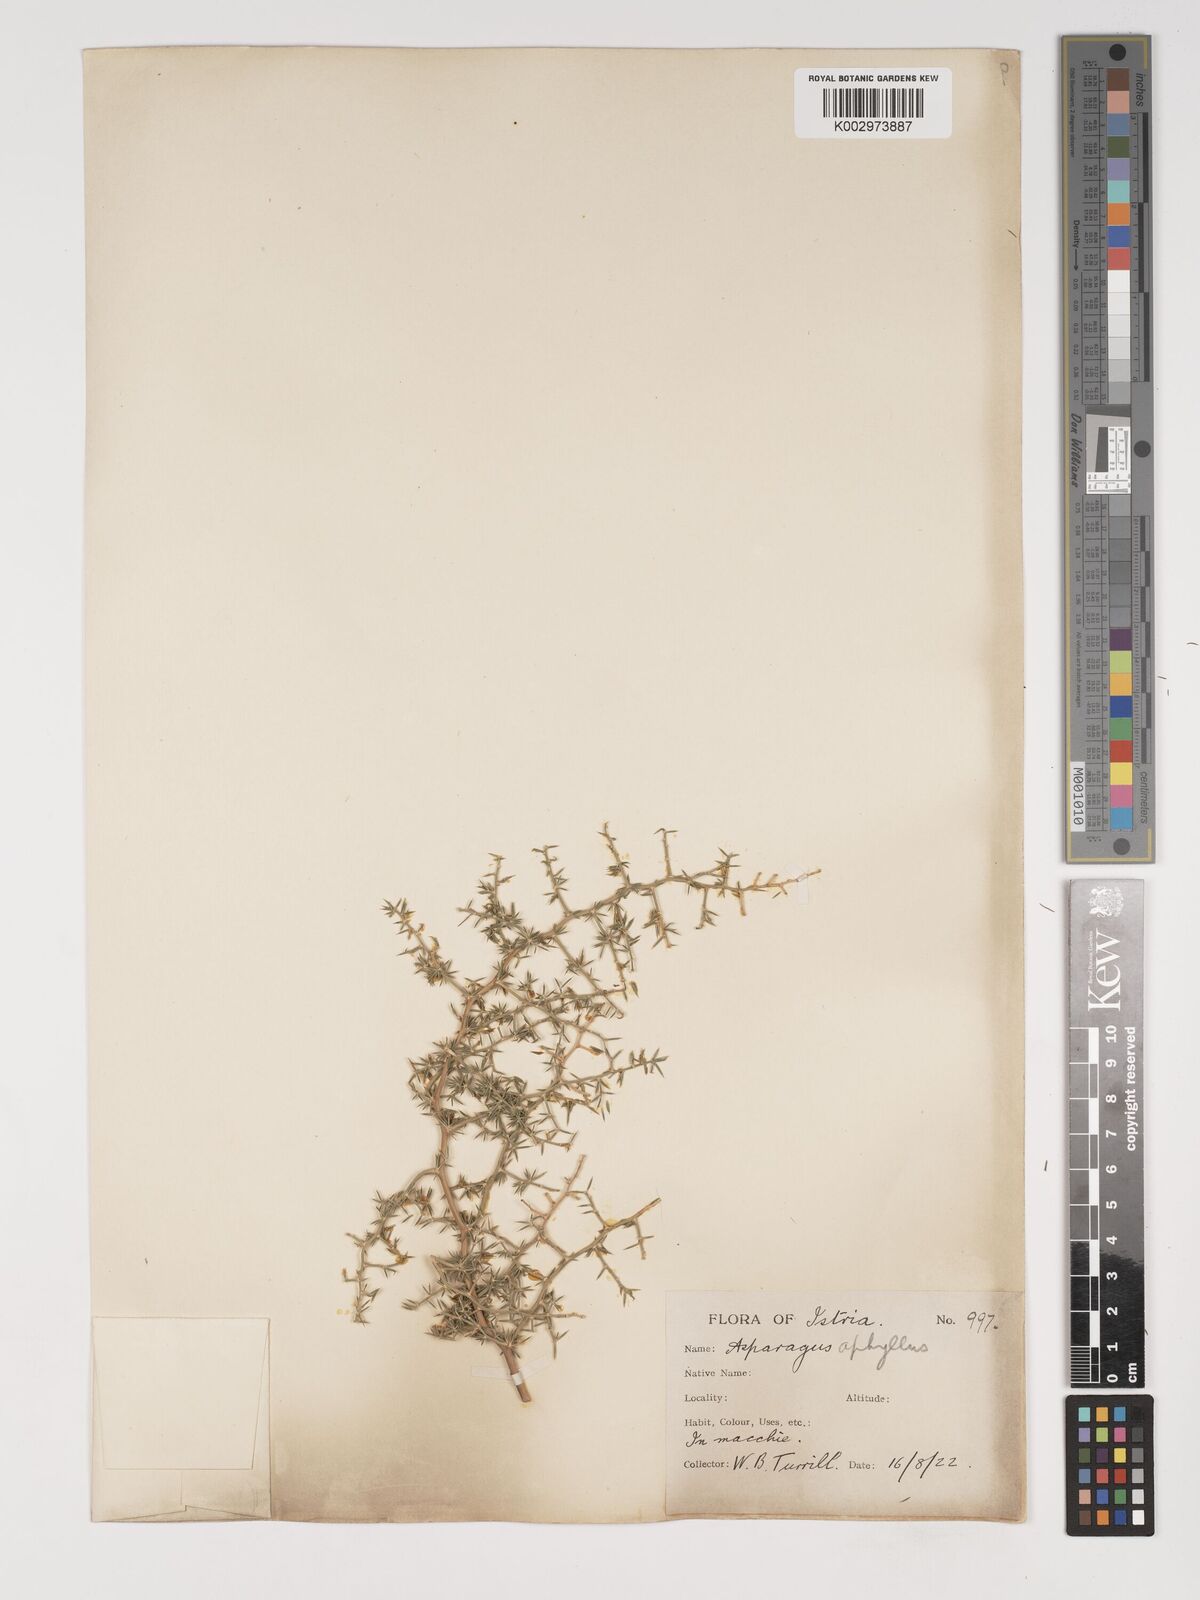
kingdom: Plantae
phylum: Tracheophyta
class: Liliopsida
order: Asparagales
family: Asparagaceae
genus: Asparagus
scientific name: Asparagus aethiopicus
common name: Sprenger's asparagus fern
